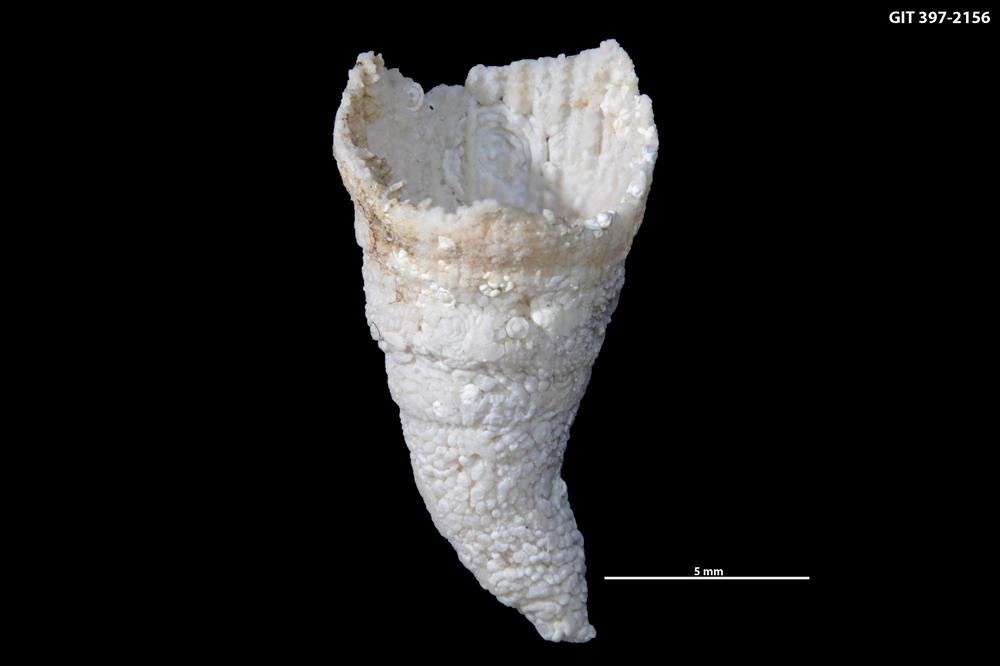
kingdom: Animalia
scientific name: Animalia
